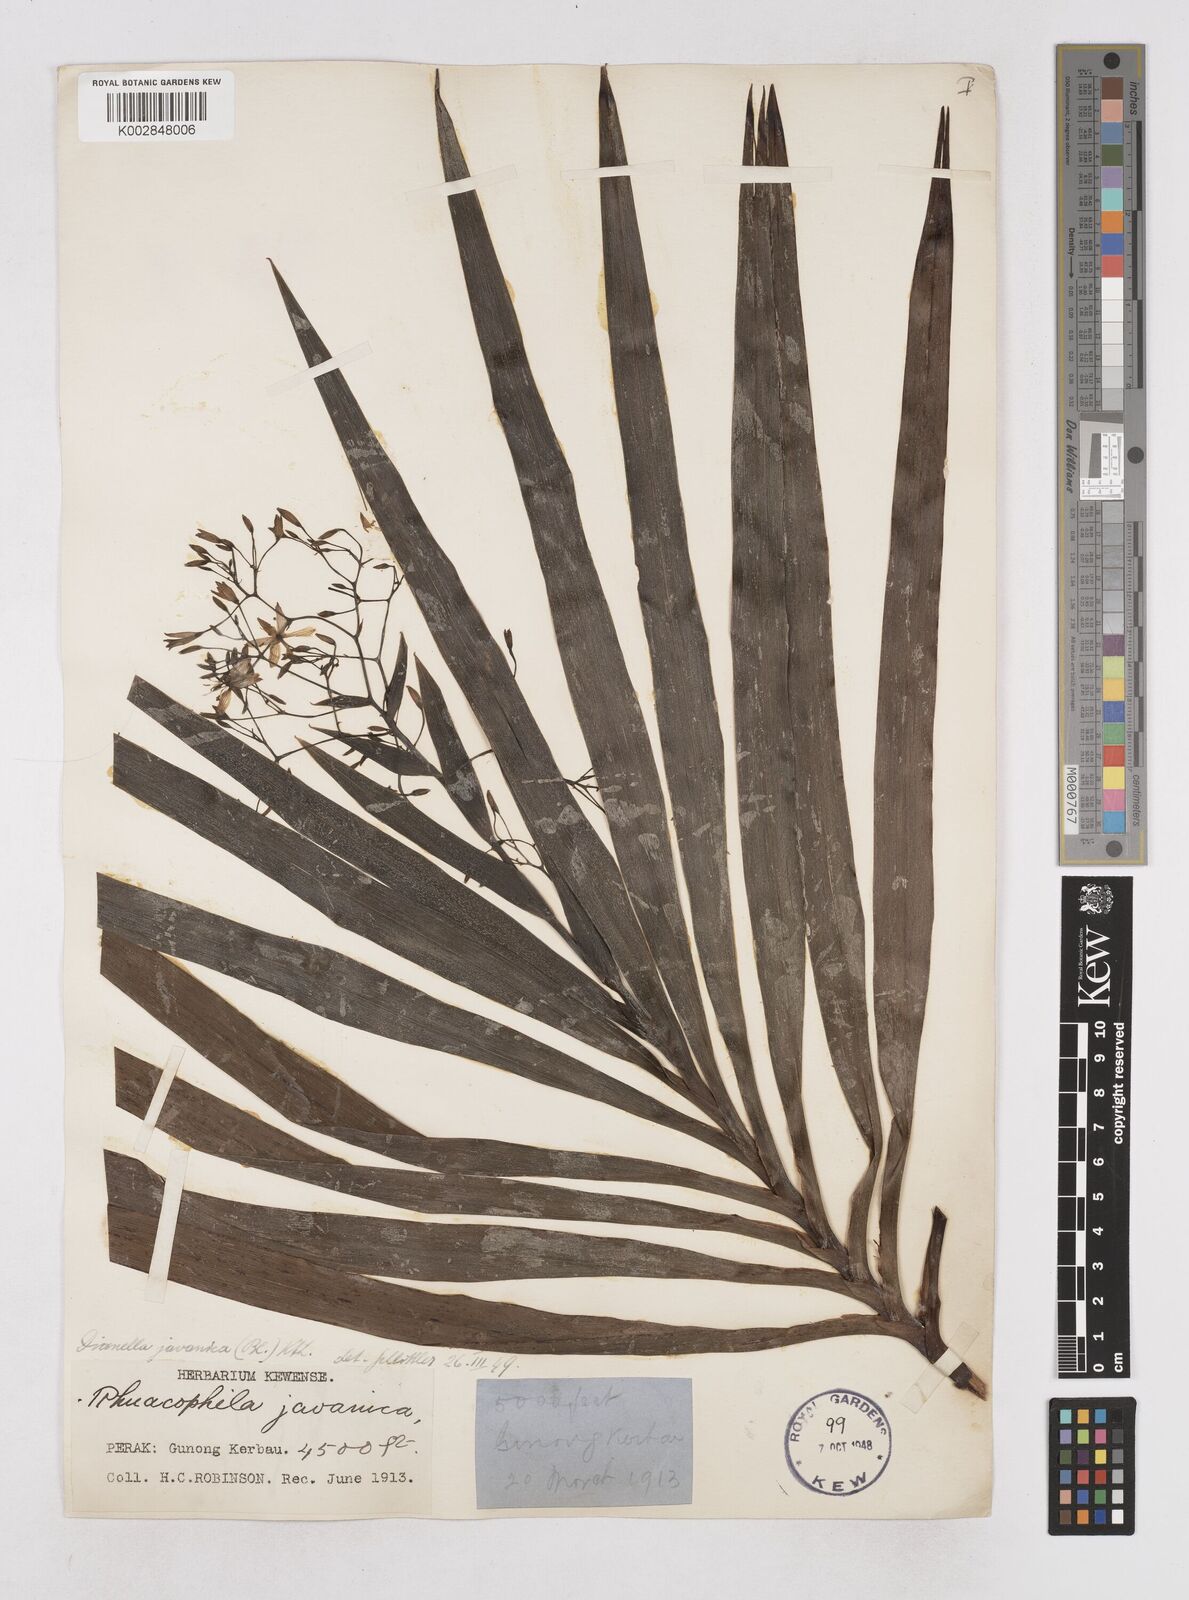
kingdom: Plantae
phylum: Tracheophyta
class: Liliopsida
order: Asparagales
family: Asphodelaceae
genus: Dianella
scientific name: Dianella ensifolia
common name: New zealand lilyplant
